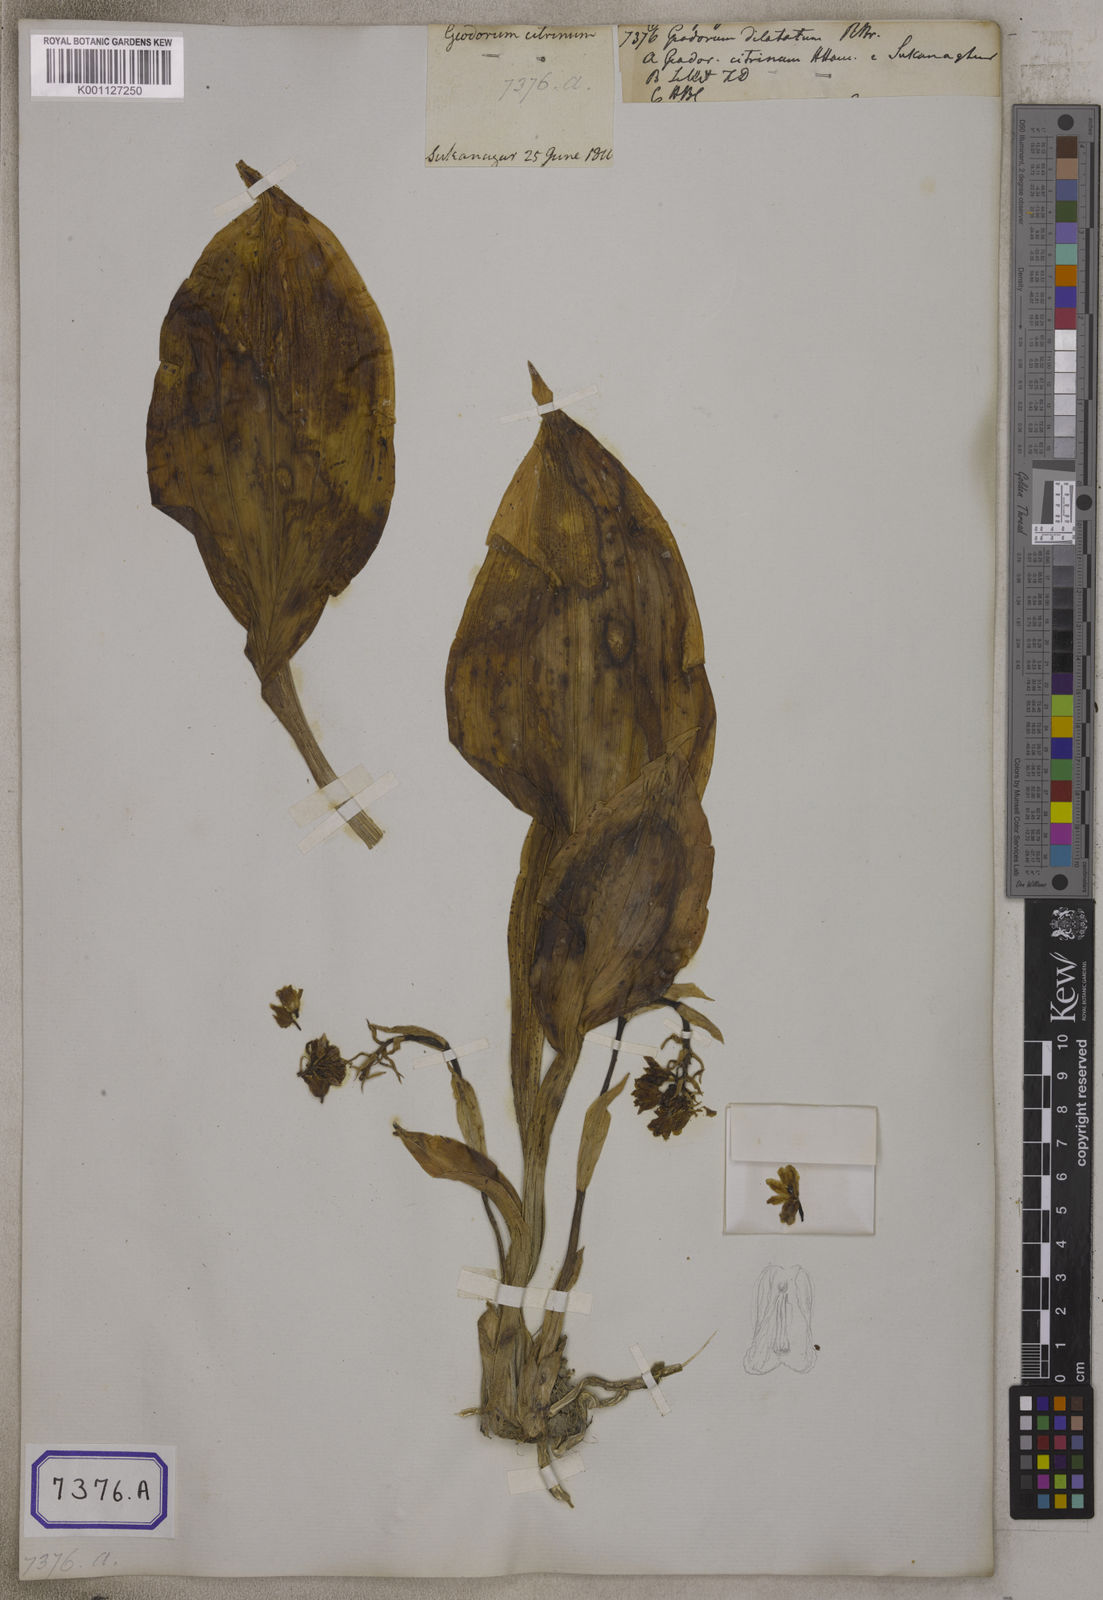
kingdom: Plantae
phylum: Tracheophyta
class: Liliopsida
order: Asparagales
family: Orchidaceae
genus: Eulophia
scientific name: Eulophia recurva
